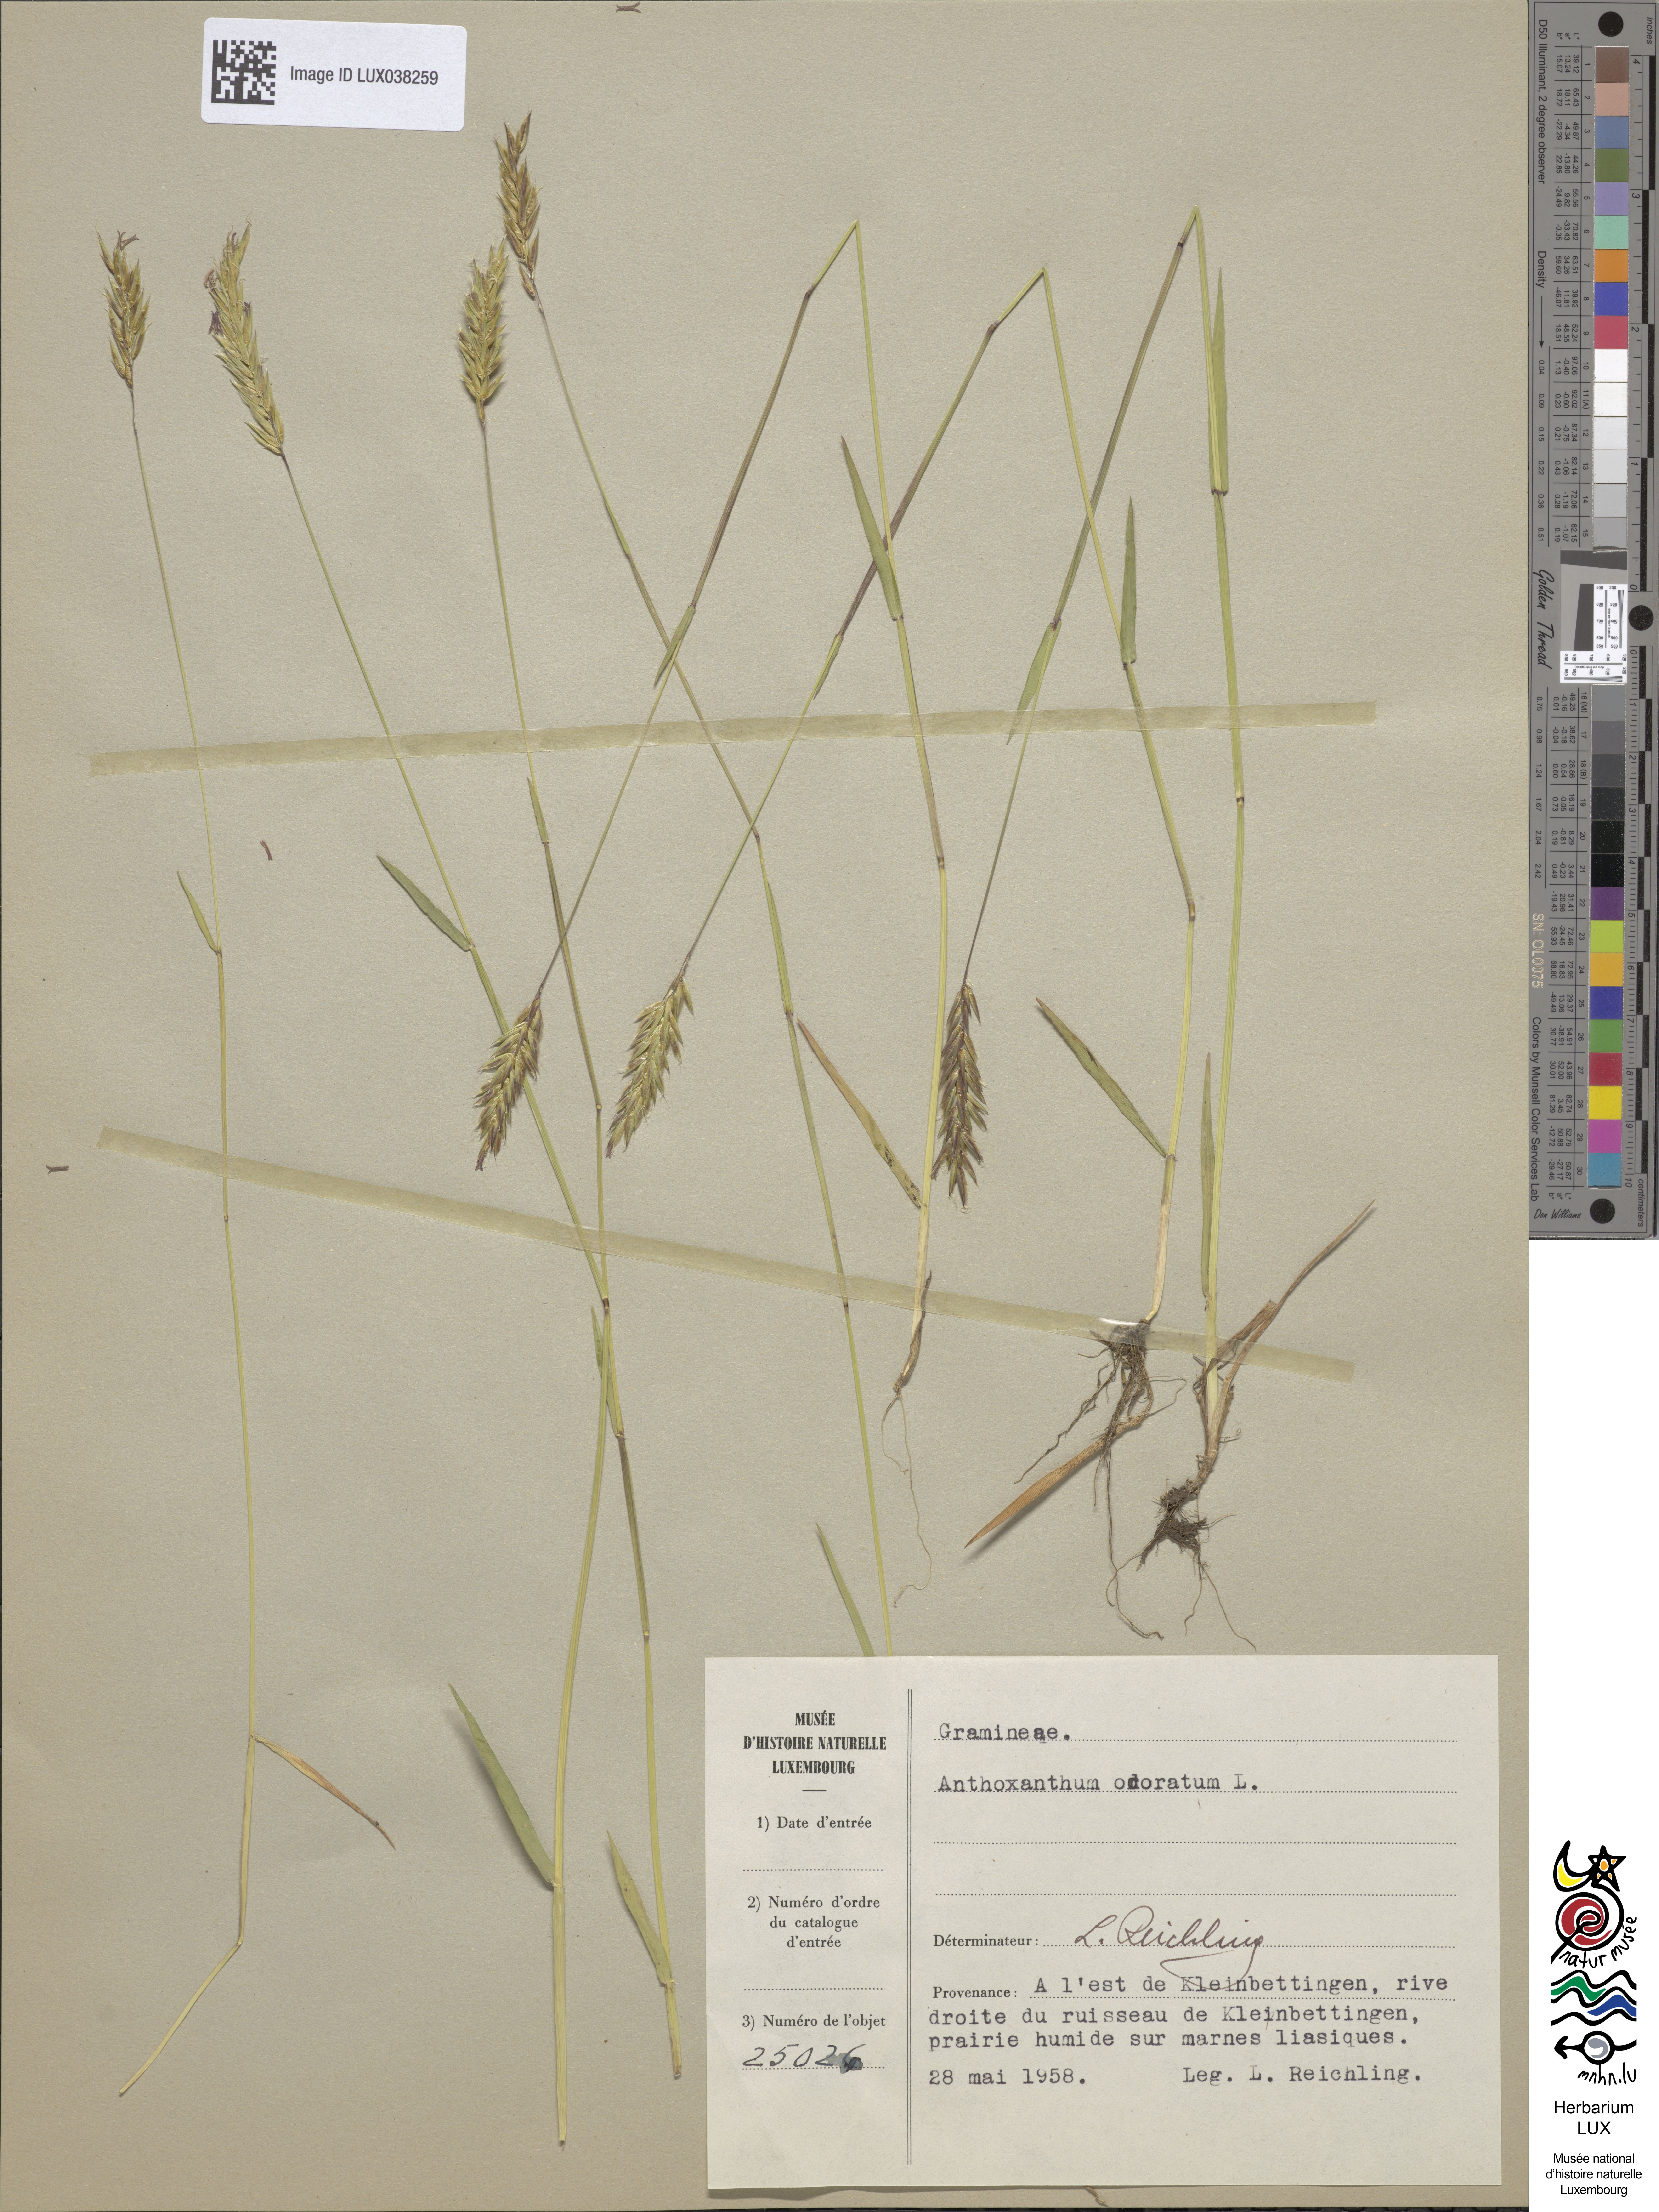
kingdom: Plantae
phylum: Tracheophyta
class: Liliopsida
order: Poales
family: Poaceae
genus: Anthoxanthum
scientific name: Anthoxanthum odoratum
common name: Sweet vernalgrass
